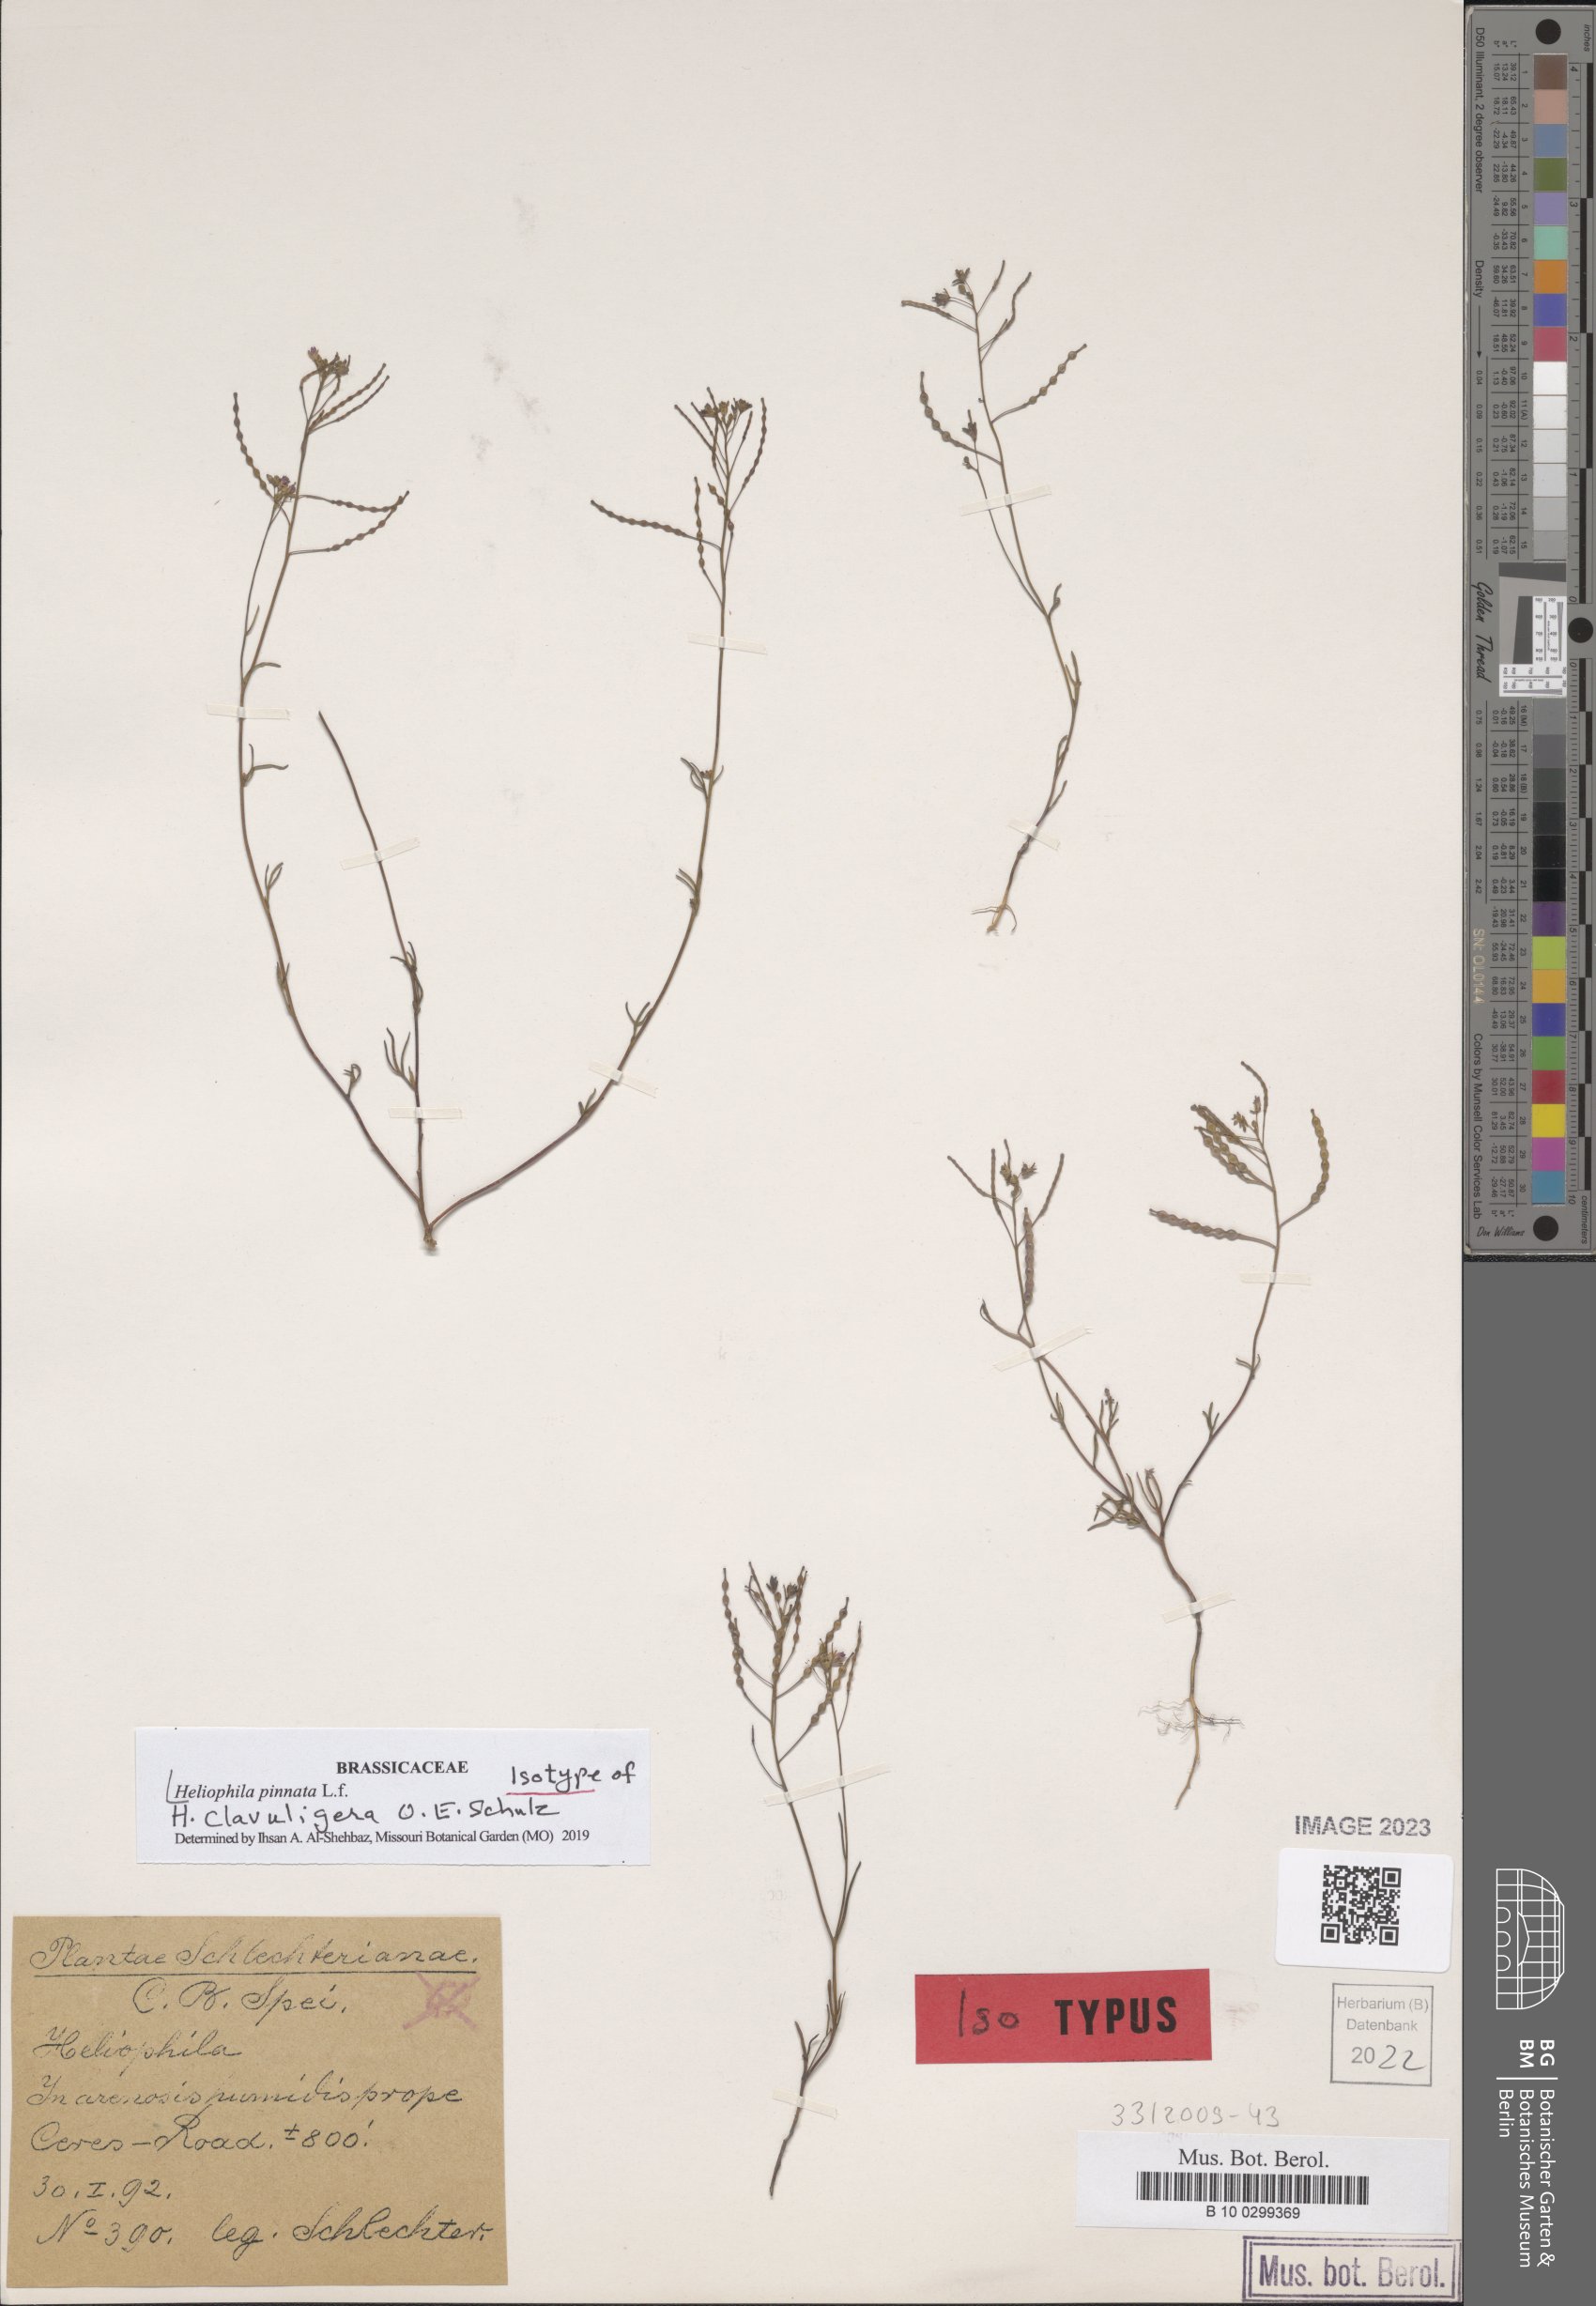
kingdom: Plantae
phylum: Tracheophyta
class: Magnoliopsida
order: Brassicales
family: Brassicaceae
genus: Heliophila
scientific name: Heliophila pinnata
